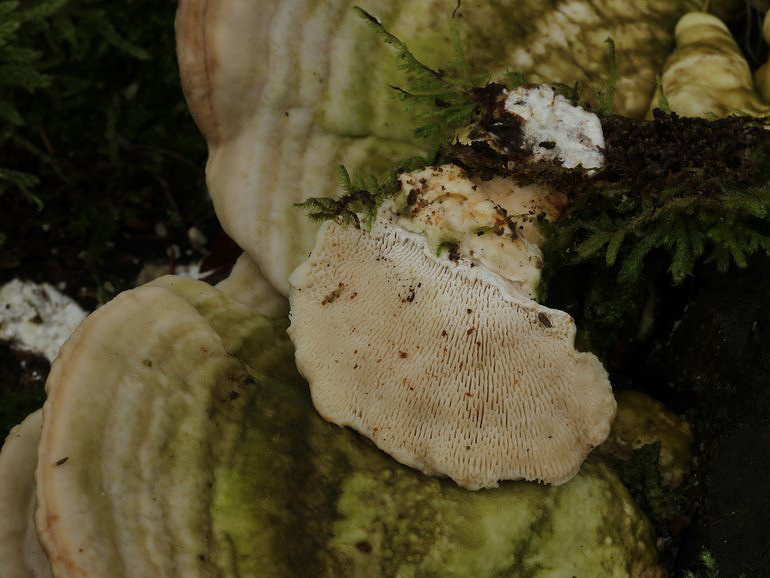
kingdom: Fungi
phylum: Basidiomycota
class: Agaricomycetes
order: Polyporales
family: Polyporaceae
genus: Trametes
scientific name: Trametes gibbosa
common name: puklet læderporesvamp
